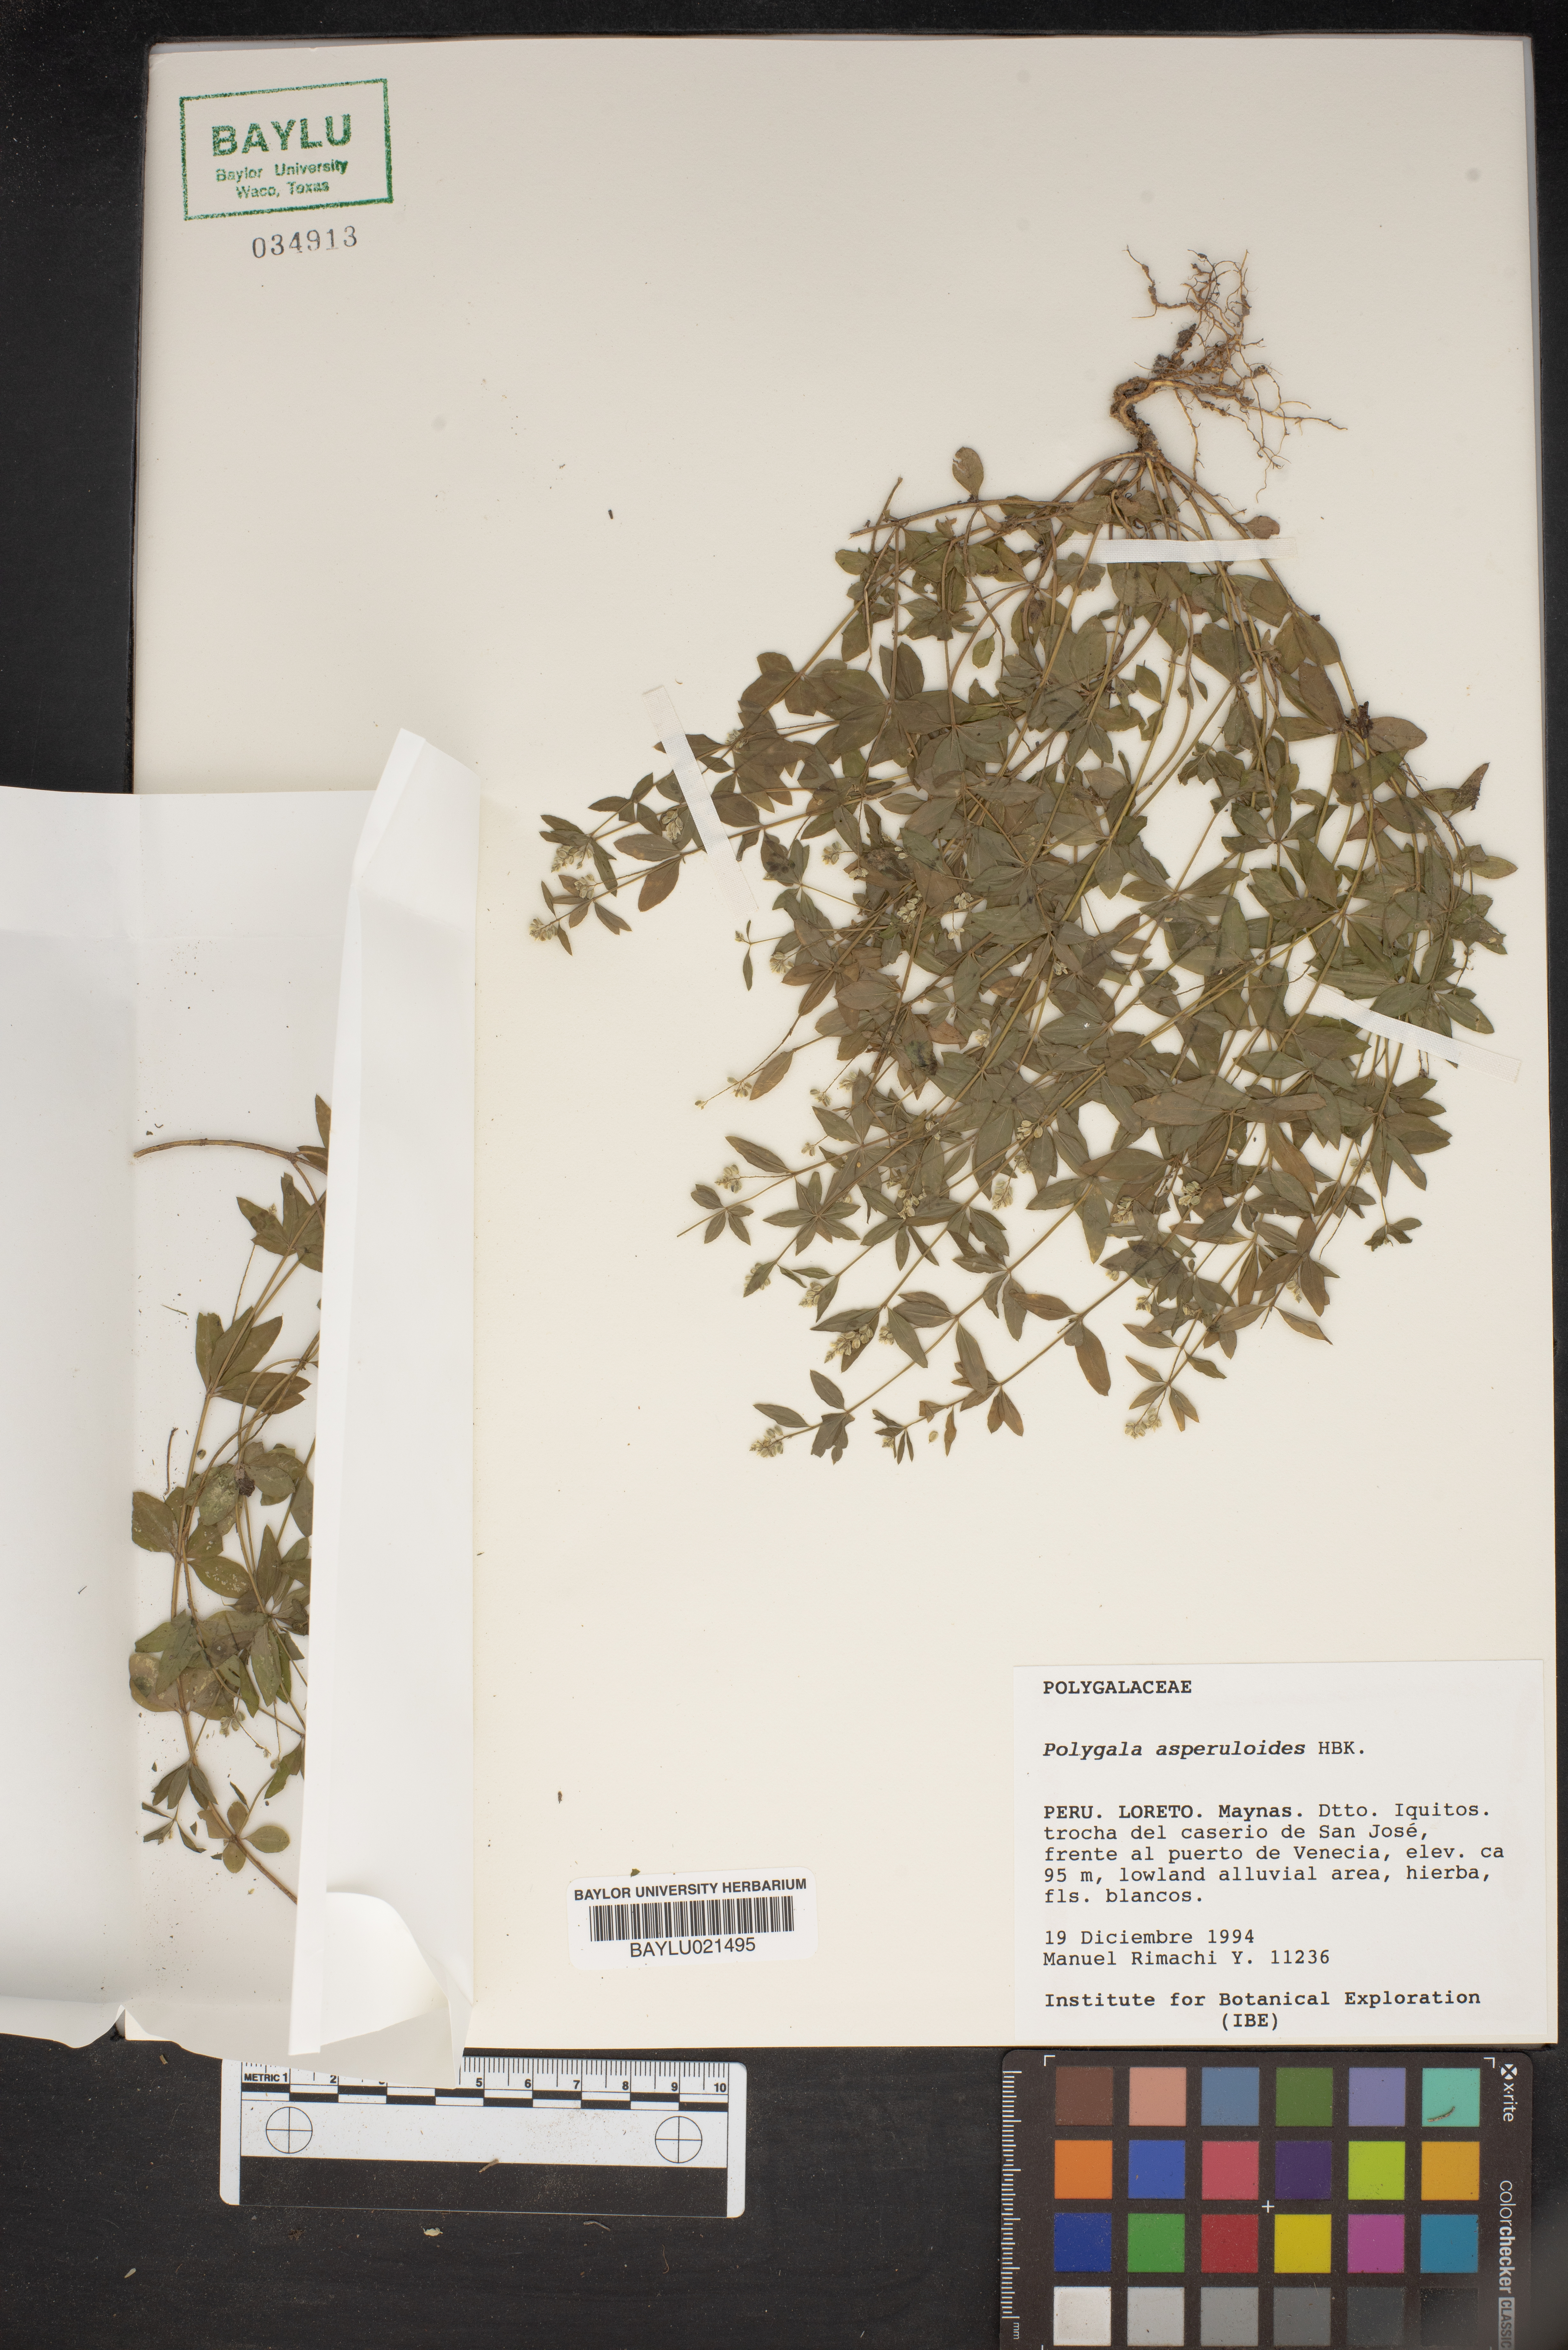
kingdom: Plantae
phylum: Tracheophyta
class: Magnoliopsida
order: Fabales
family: Polygalaceae
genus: Polygala
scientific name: Polygala asperuloides
